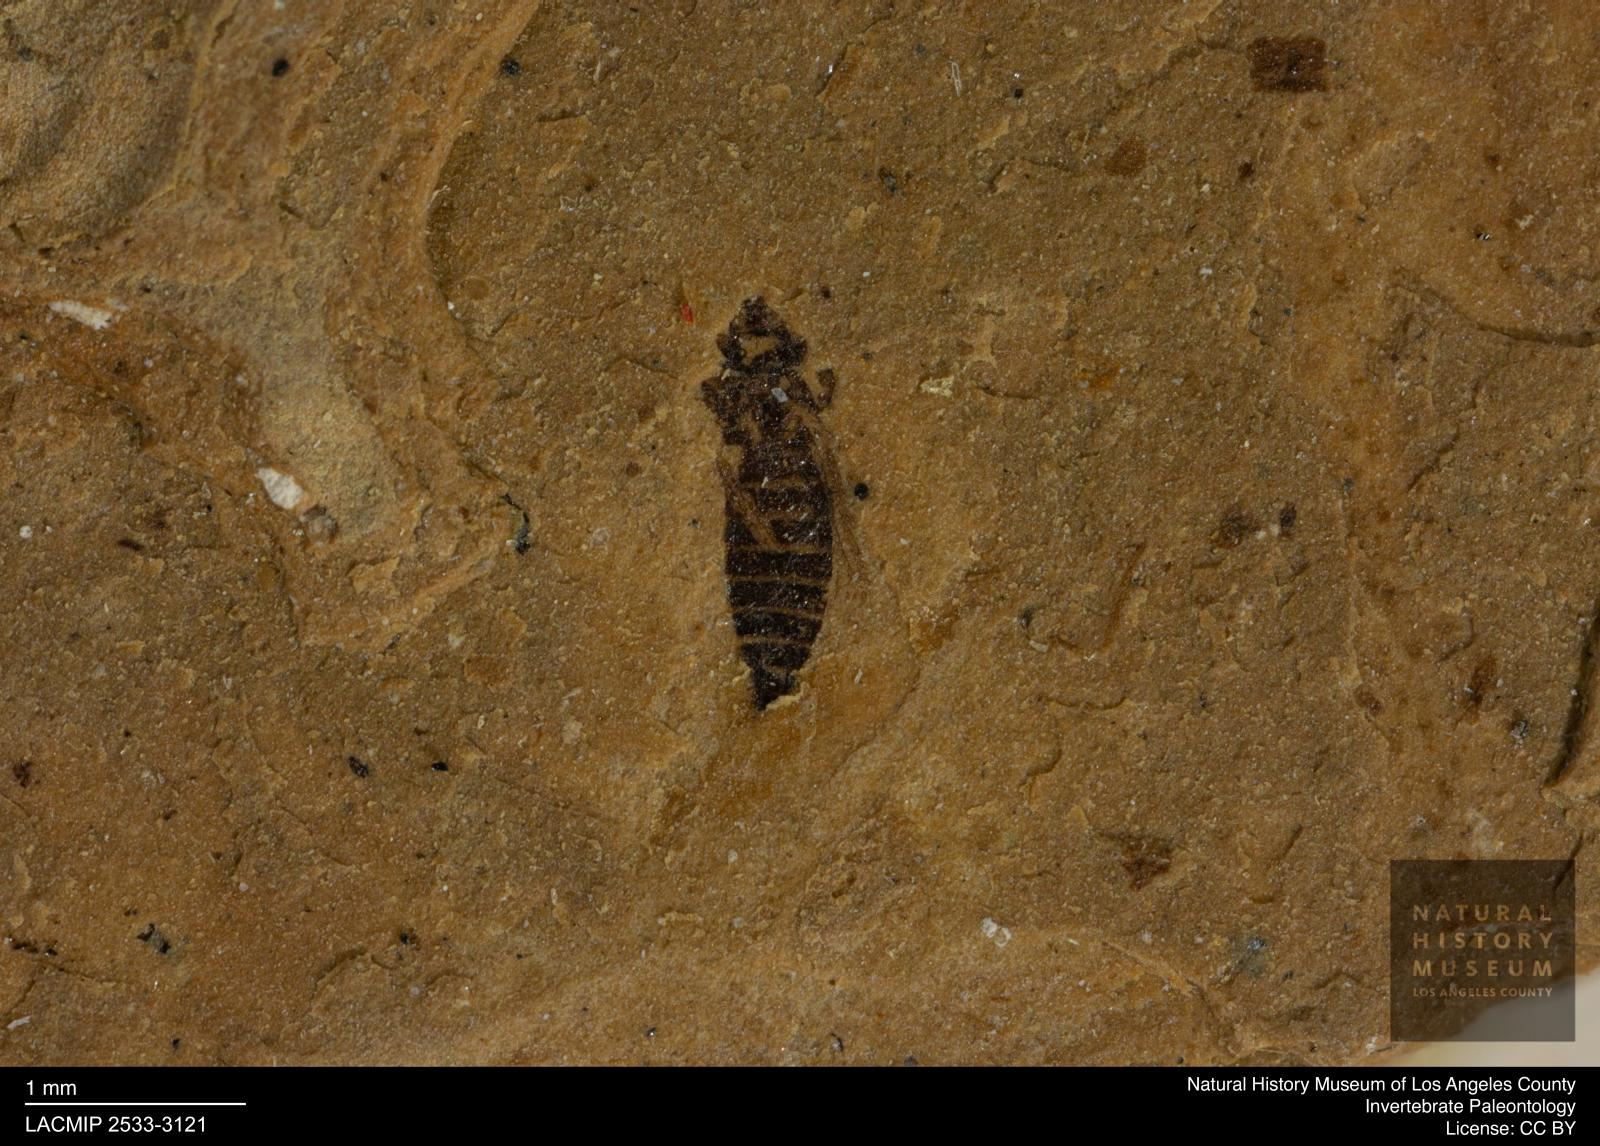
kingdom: Animalia
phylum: Arthropoda
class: Insecta
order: Thysanoptera
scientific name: Thysanoptera
